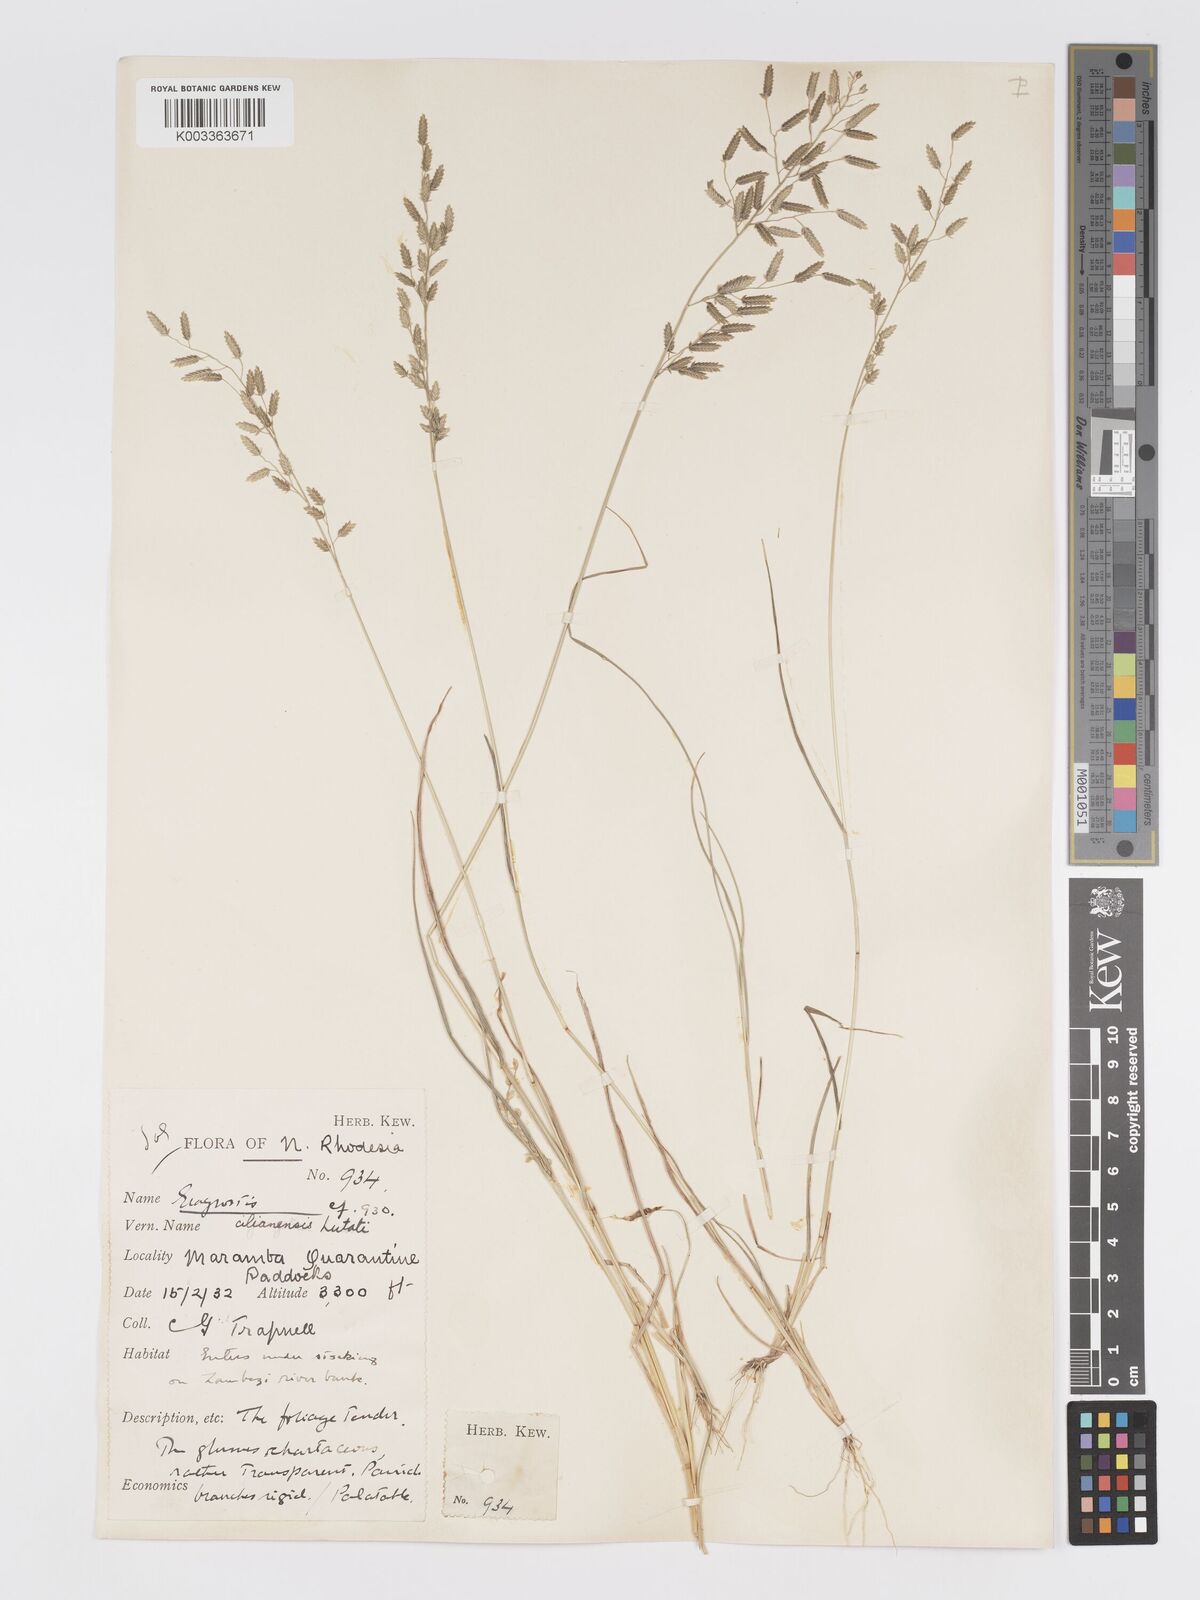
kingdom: Plantae
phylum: Tracheophyta
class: Liliopsida
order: Poales
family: Poaceae
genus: Eragrostis
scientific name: Eragrostis cilianensis
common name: Stinkgrass
